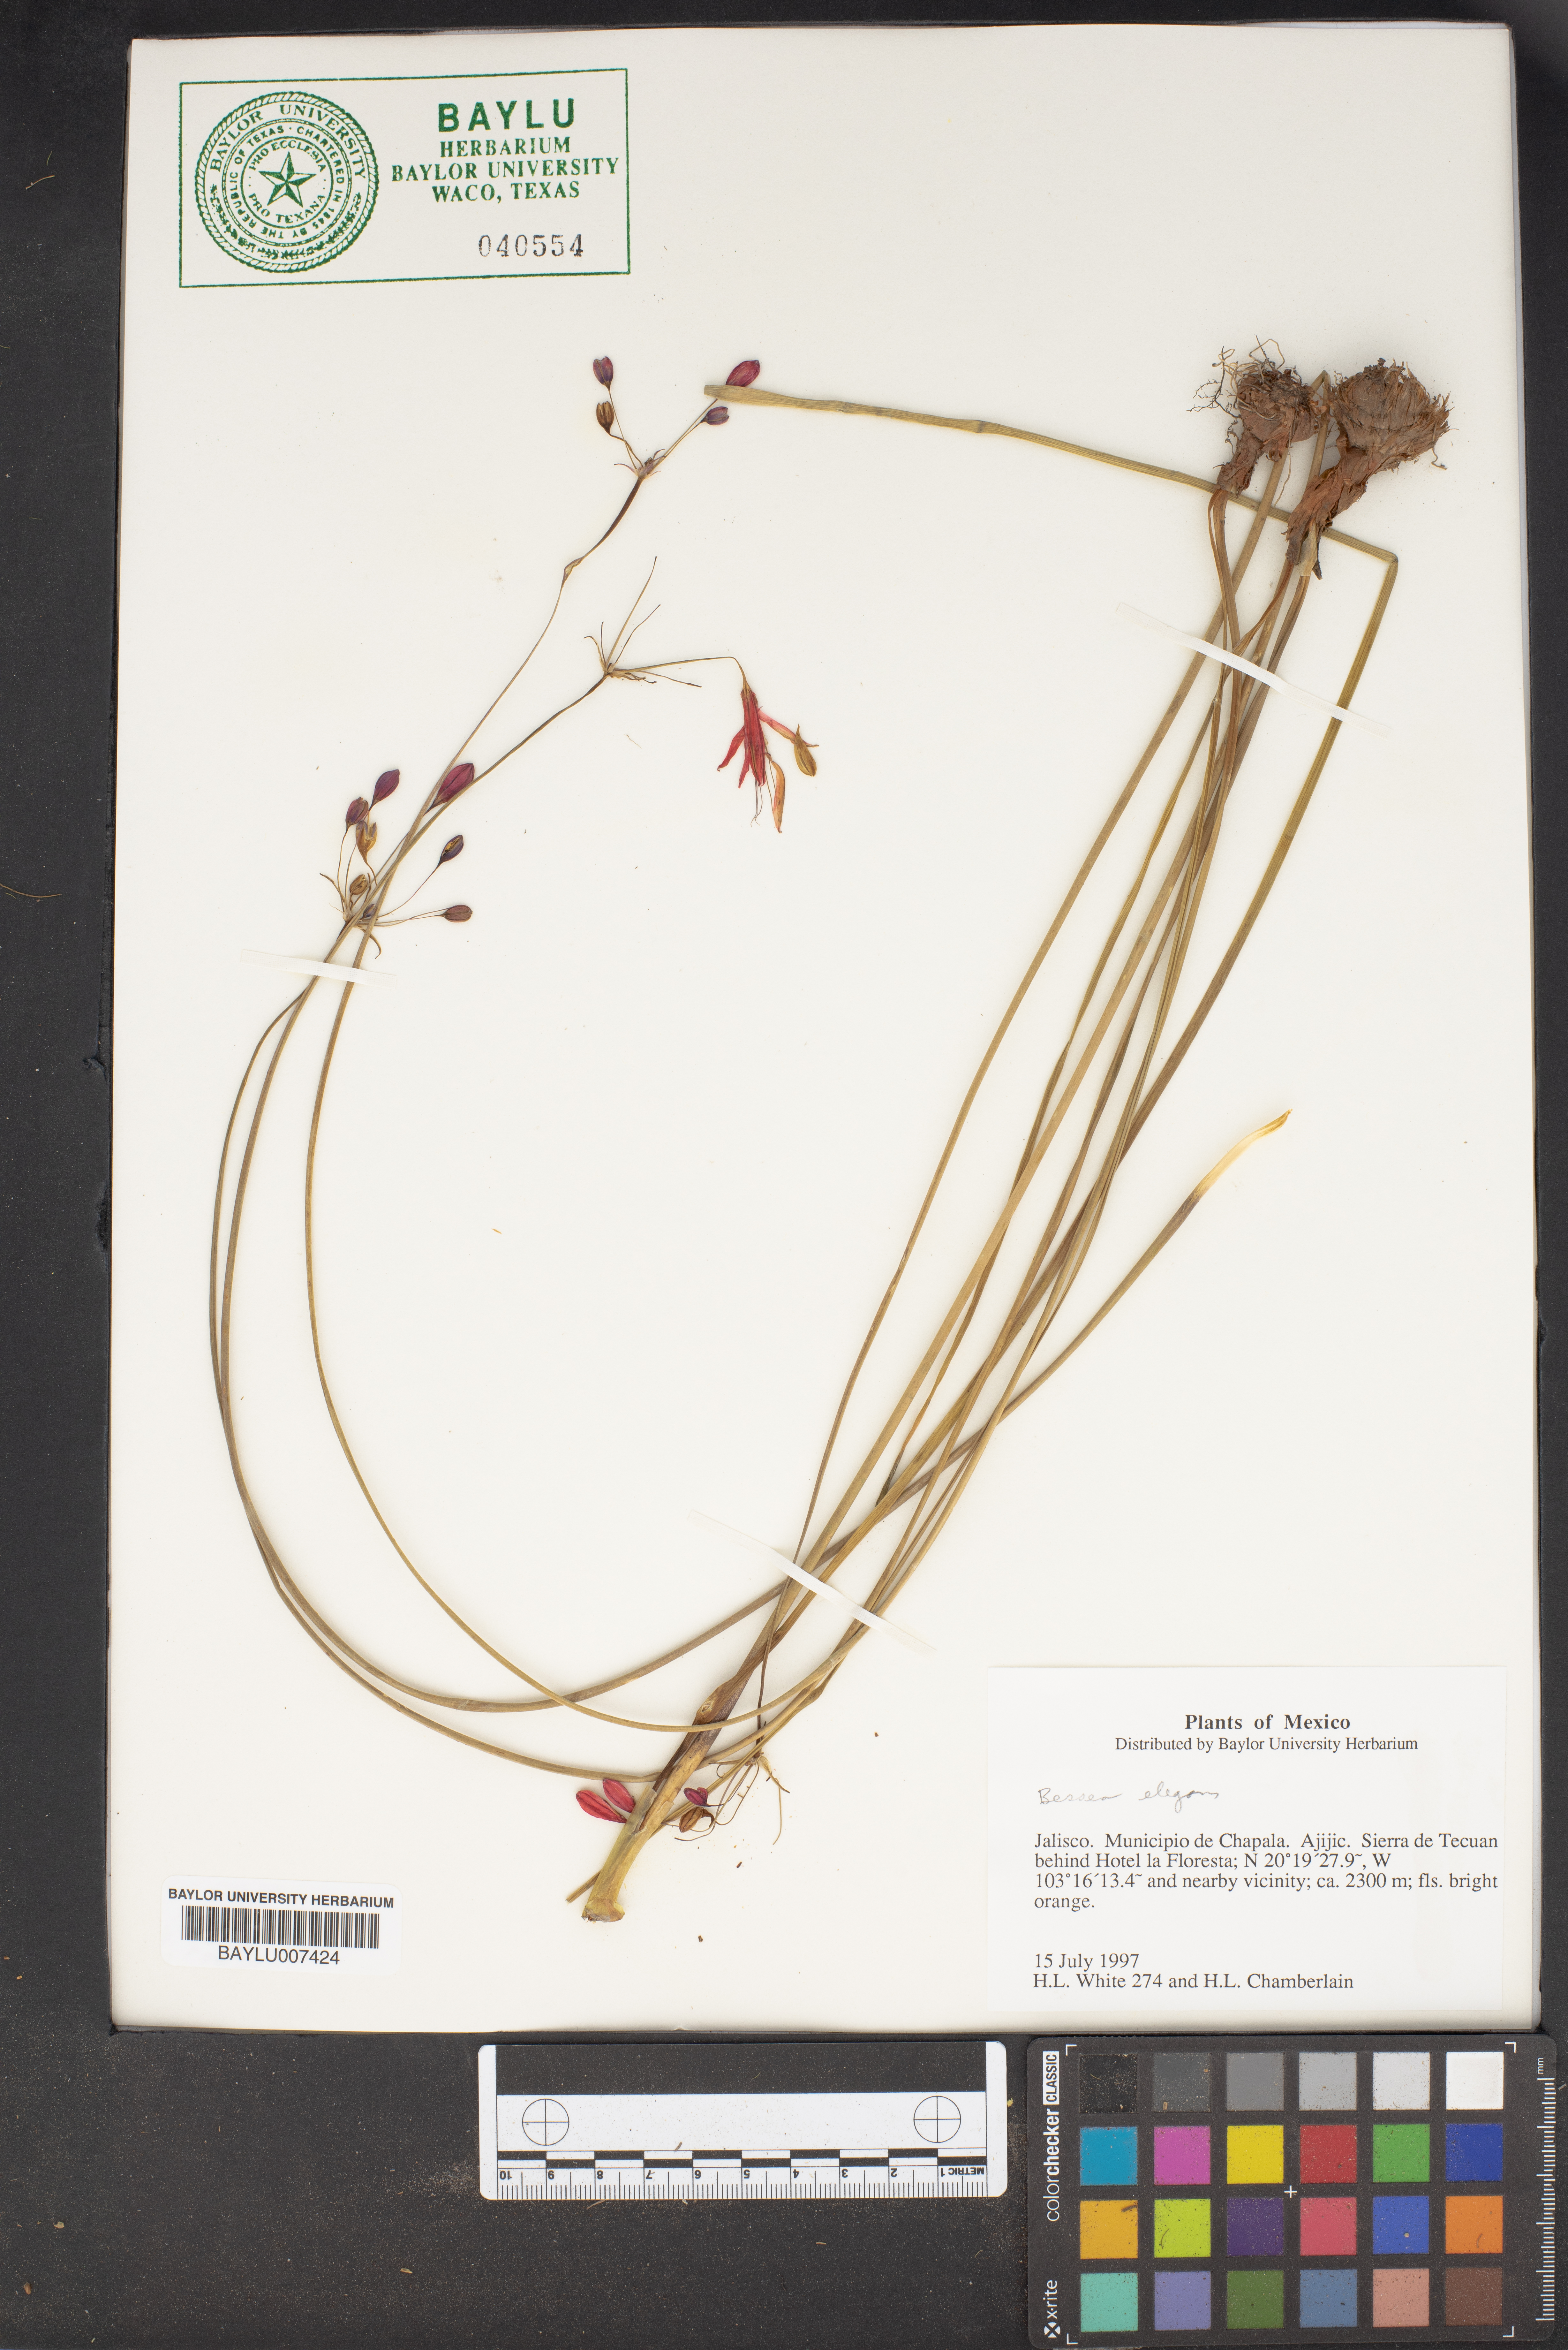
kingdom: Plantae
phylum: Tracheophyta
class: Liliopsida
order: Asparagales
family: Asparagaceae
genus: Bessera
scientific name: Bessera elegans
